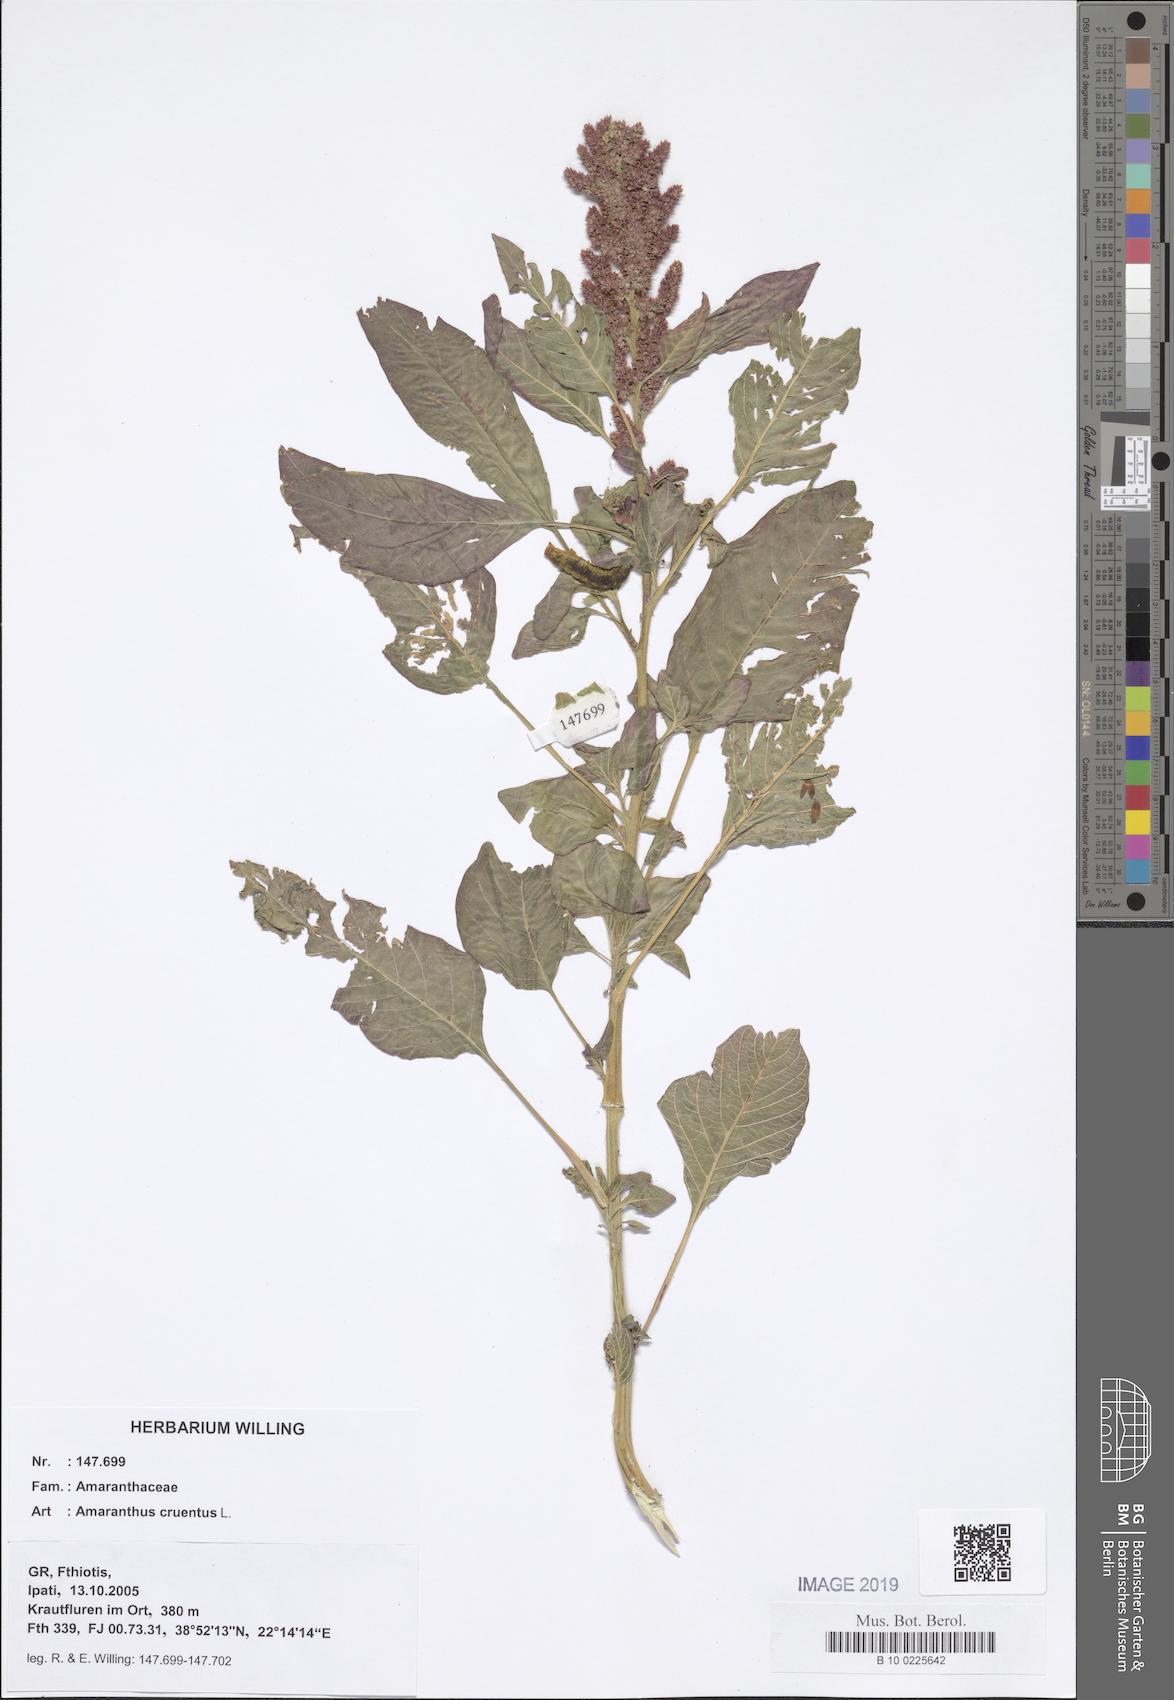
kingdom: Plantae
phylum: Tracheophyta
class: Magnoliopsida
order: Caryophyllales
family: Amaranthaceae
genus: Amaranthus
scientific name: Amaranthus cruentus
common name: Purple amaranth
